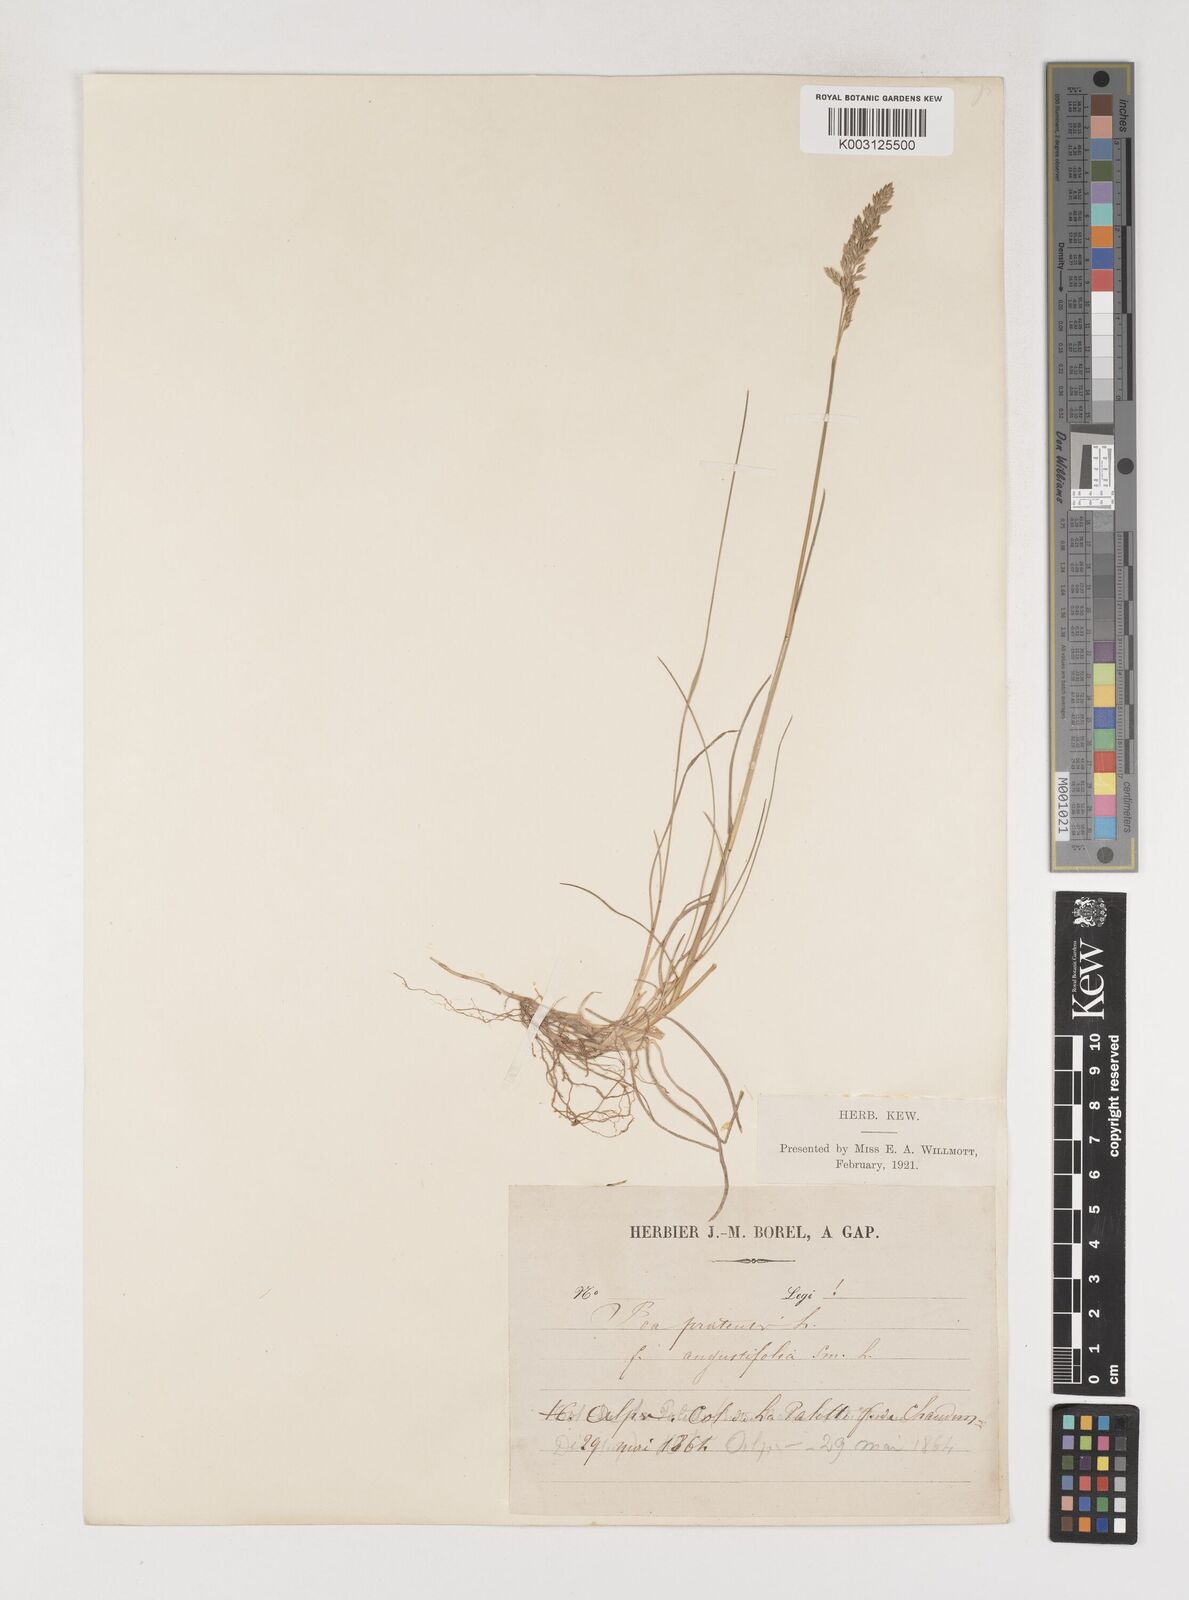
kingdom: Plantae
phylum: Tracheophyta
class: Liliopsida
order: Poales
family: Poaceae
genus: Poa
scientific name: Poa angustifolia
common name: Narrow-leaved meadow-grass
